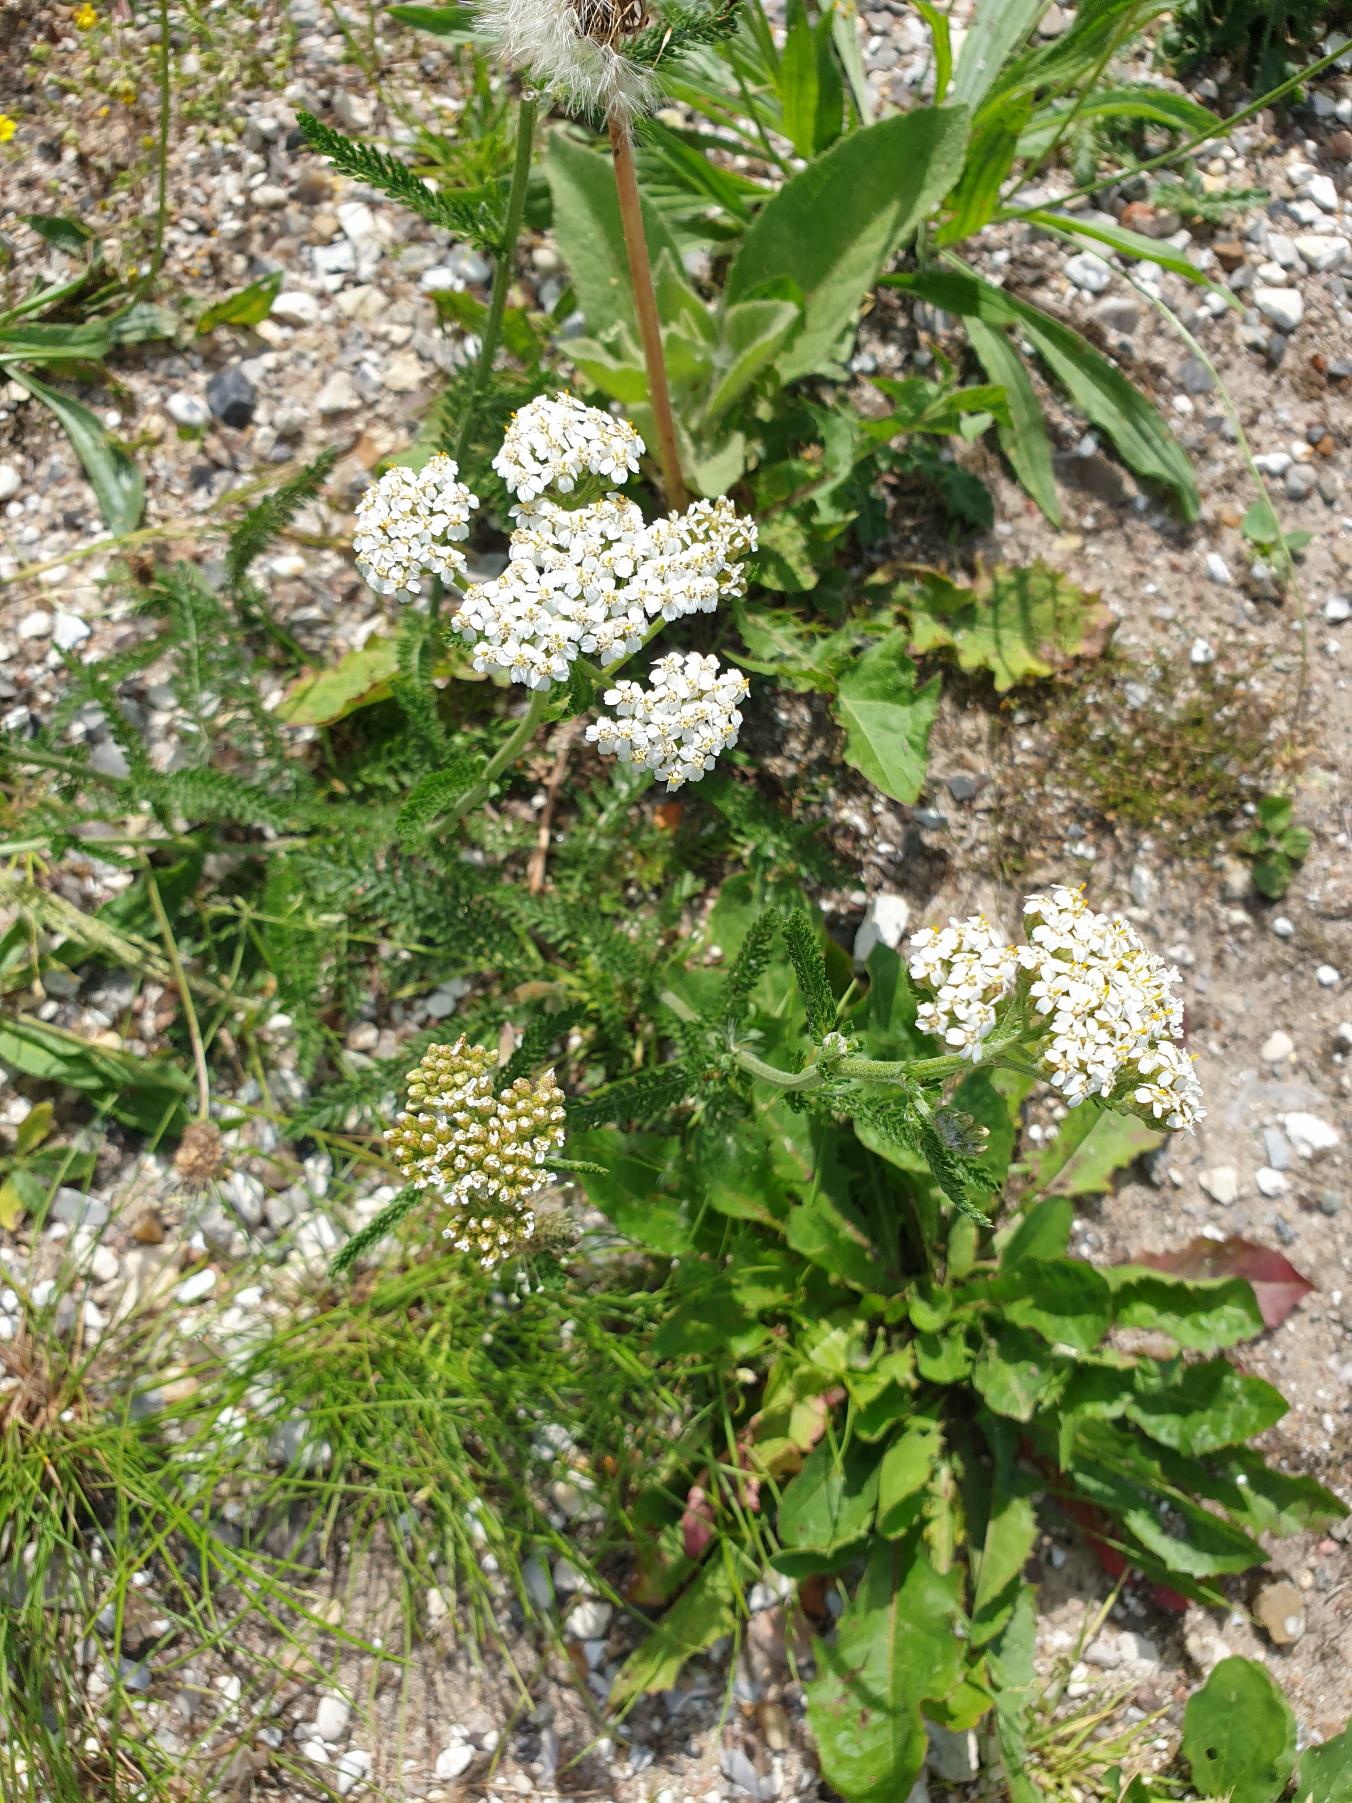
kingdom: Plantae
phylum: Tracheophyta
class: Magnoliopsida
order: Asterales
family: Asteraceae
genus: Achillea
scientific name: Achillea millefolium
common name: Almindelig røllike
